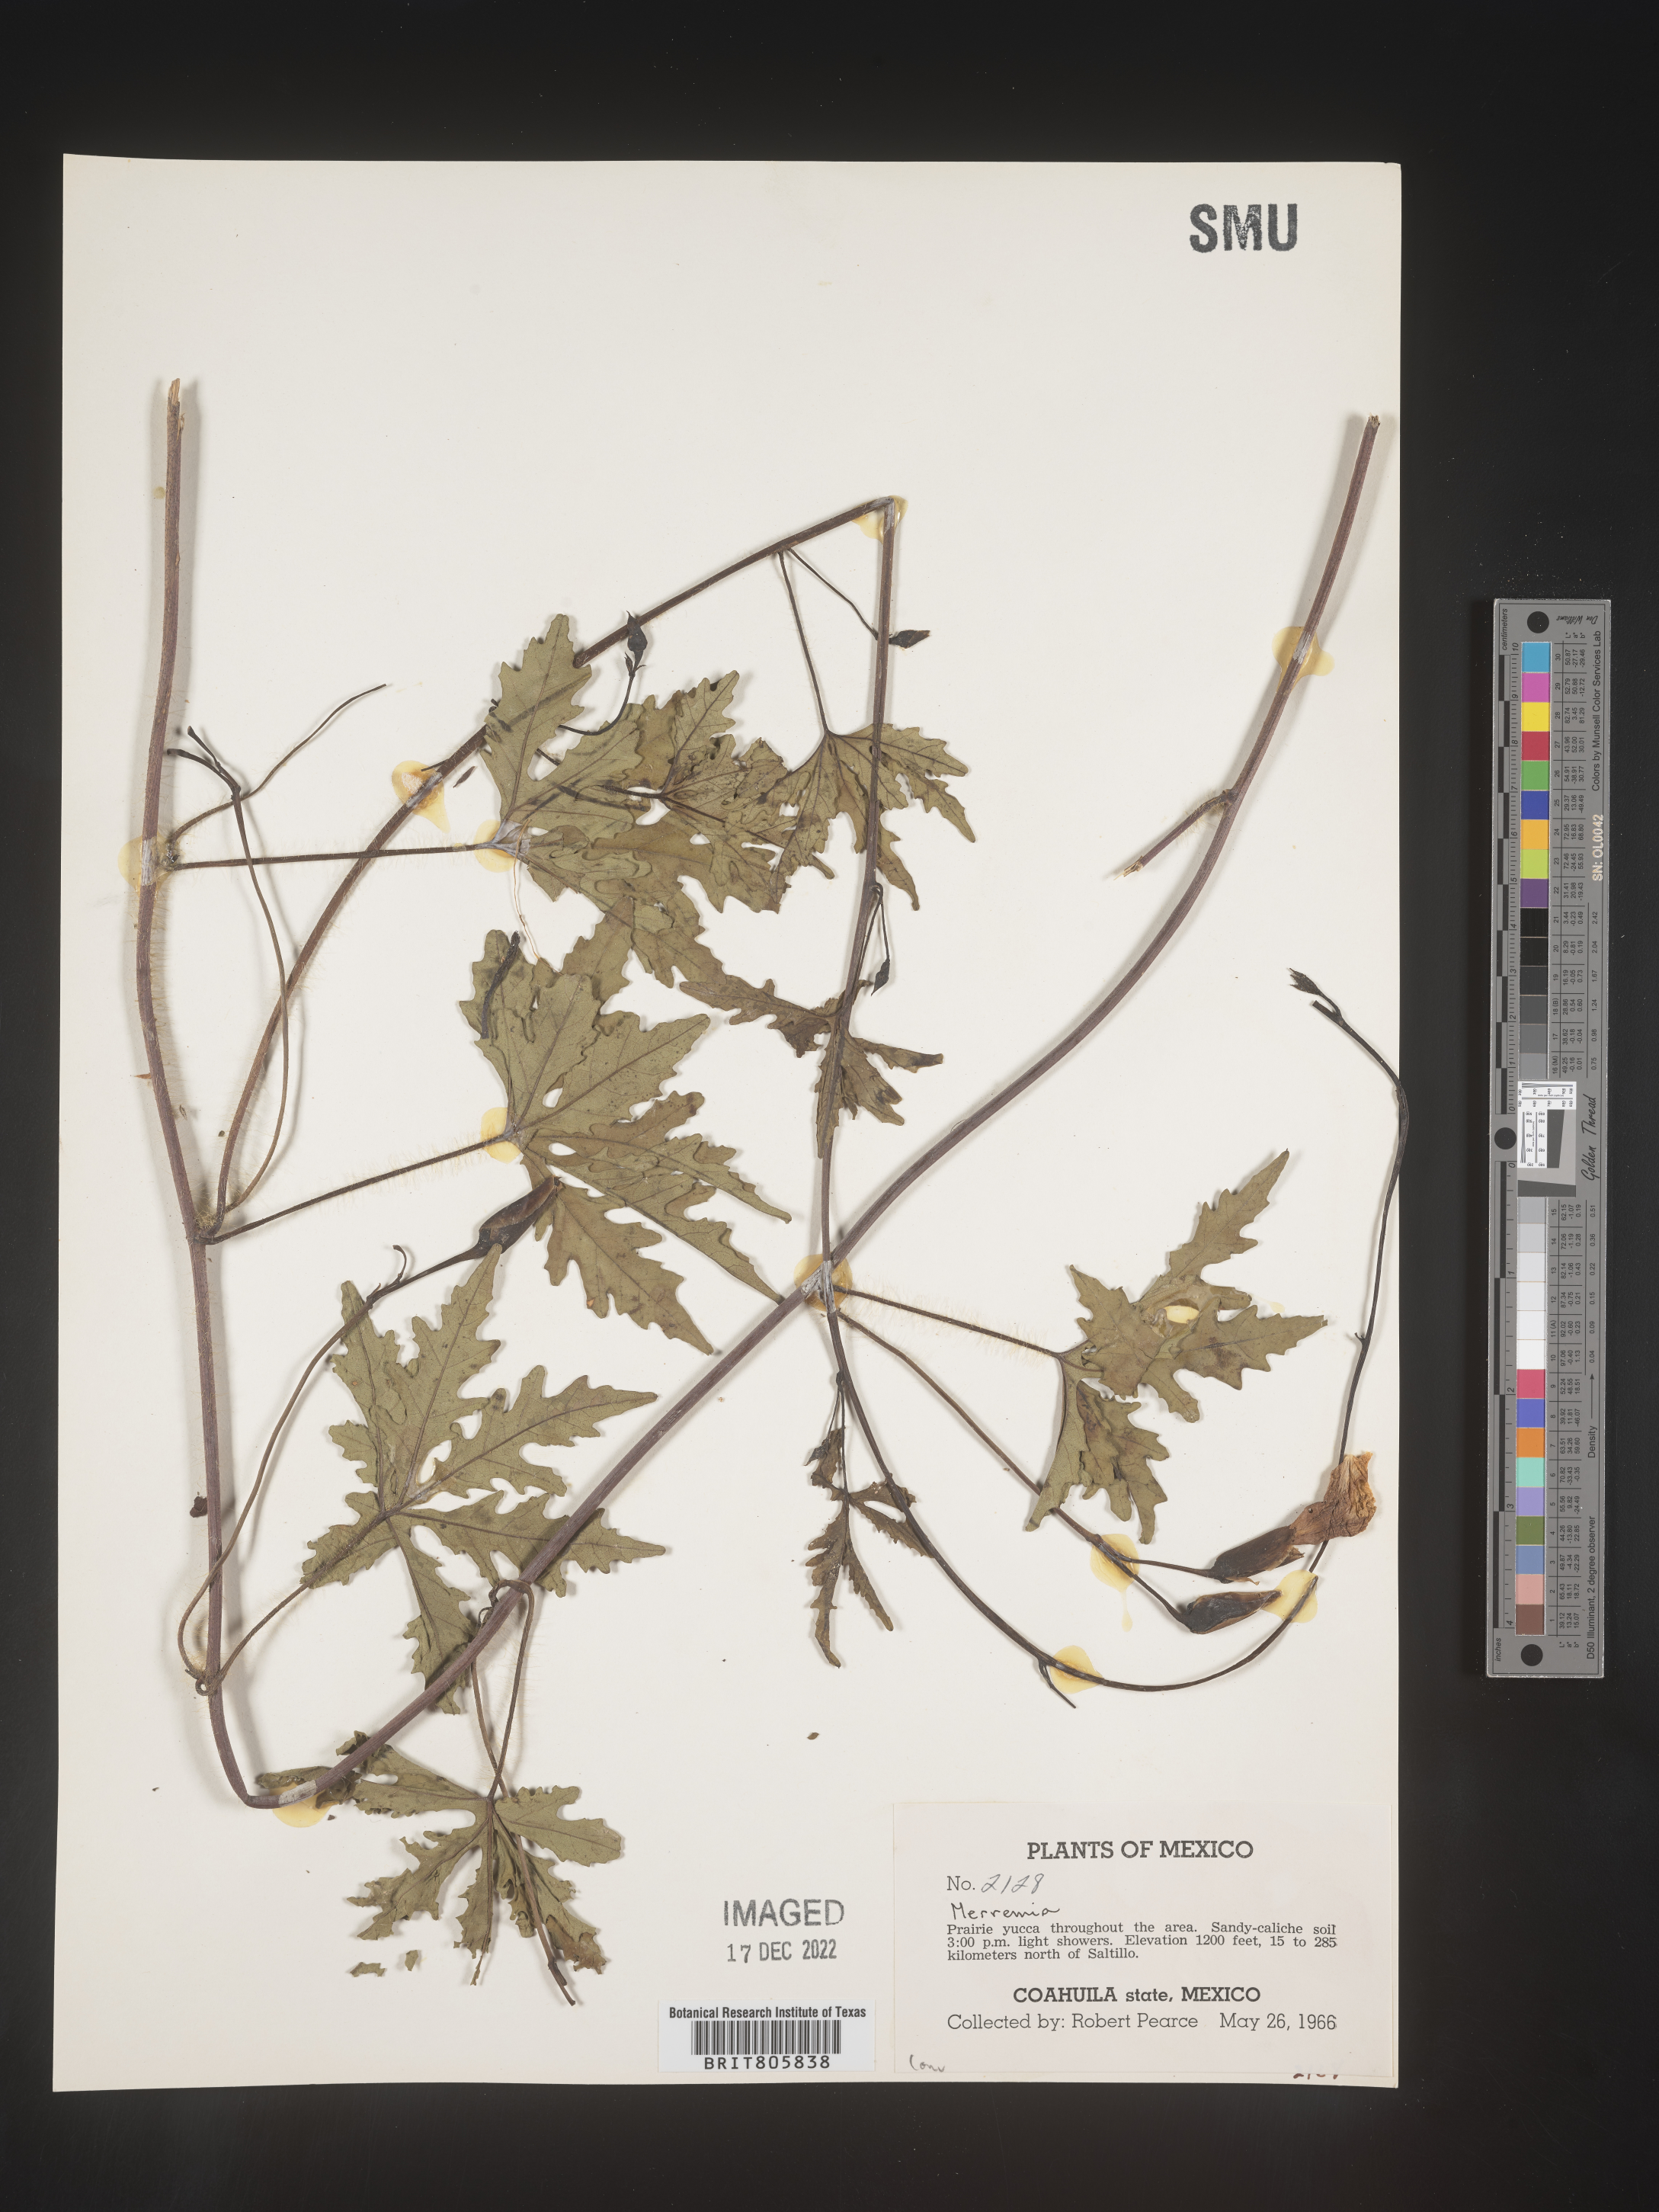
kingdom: Plantae
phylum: Tracheophyta
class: Magnoliopsida
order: Solanales
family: Convolvulaceae
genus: Merremia
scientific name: Merremia
